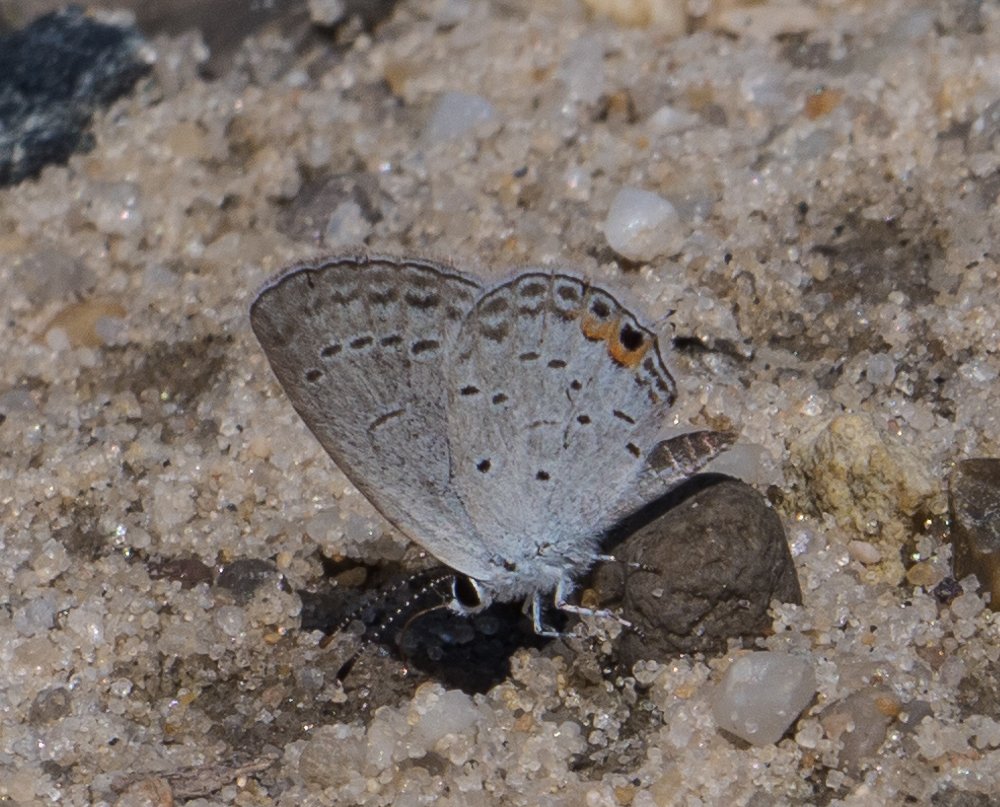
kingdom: Animalia
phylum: Arthropoda
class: Insecta
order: Lepidoptera
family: Lycaenidae
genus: Elkalyce
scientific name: Elkalyce comyntas
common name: Eastern Tailed-Blue
